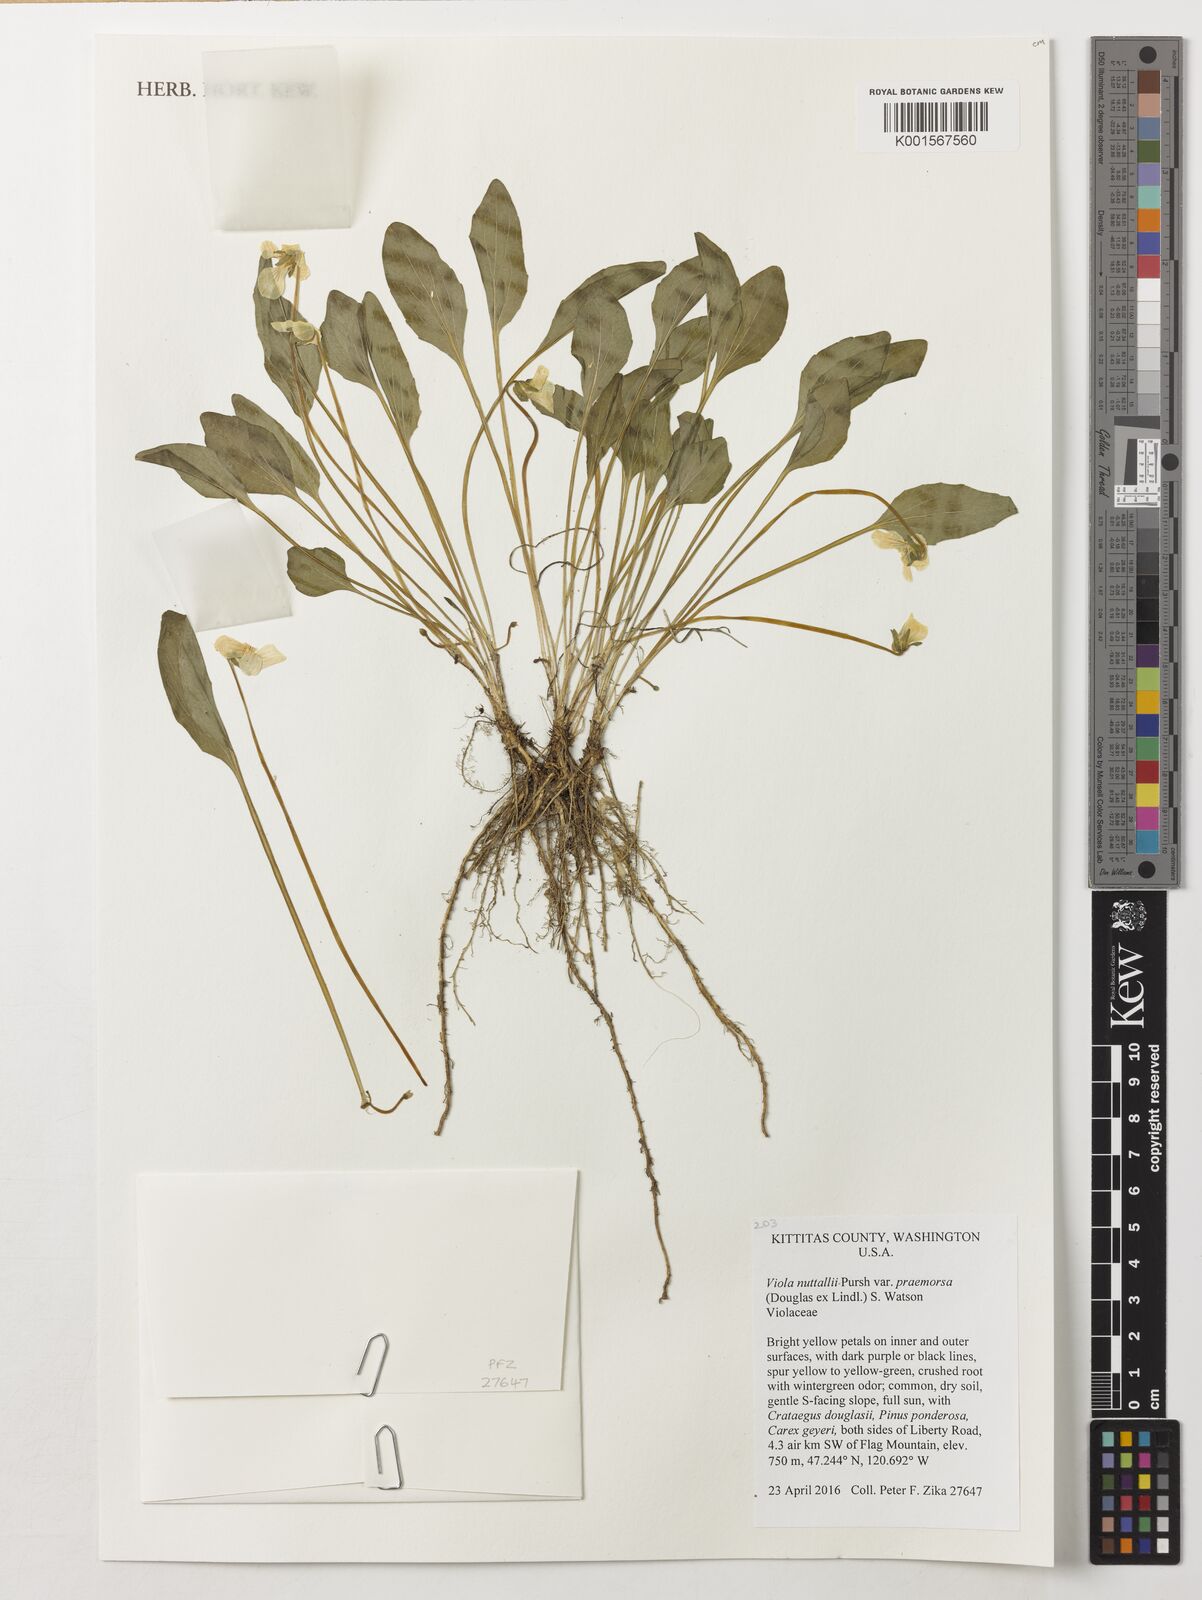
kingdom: Plantae
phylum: Tracheophyta
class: Magnoliopsida
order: Malpighiales
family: Violaceae
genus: Viola
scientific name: Viola praemorsa
